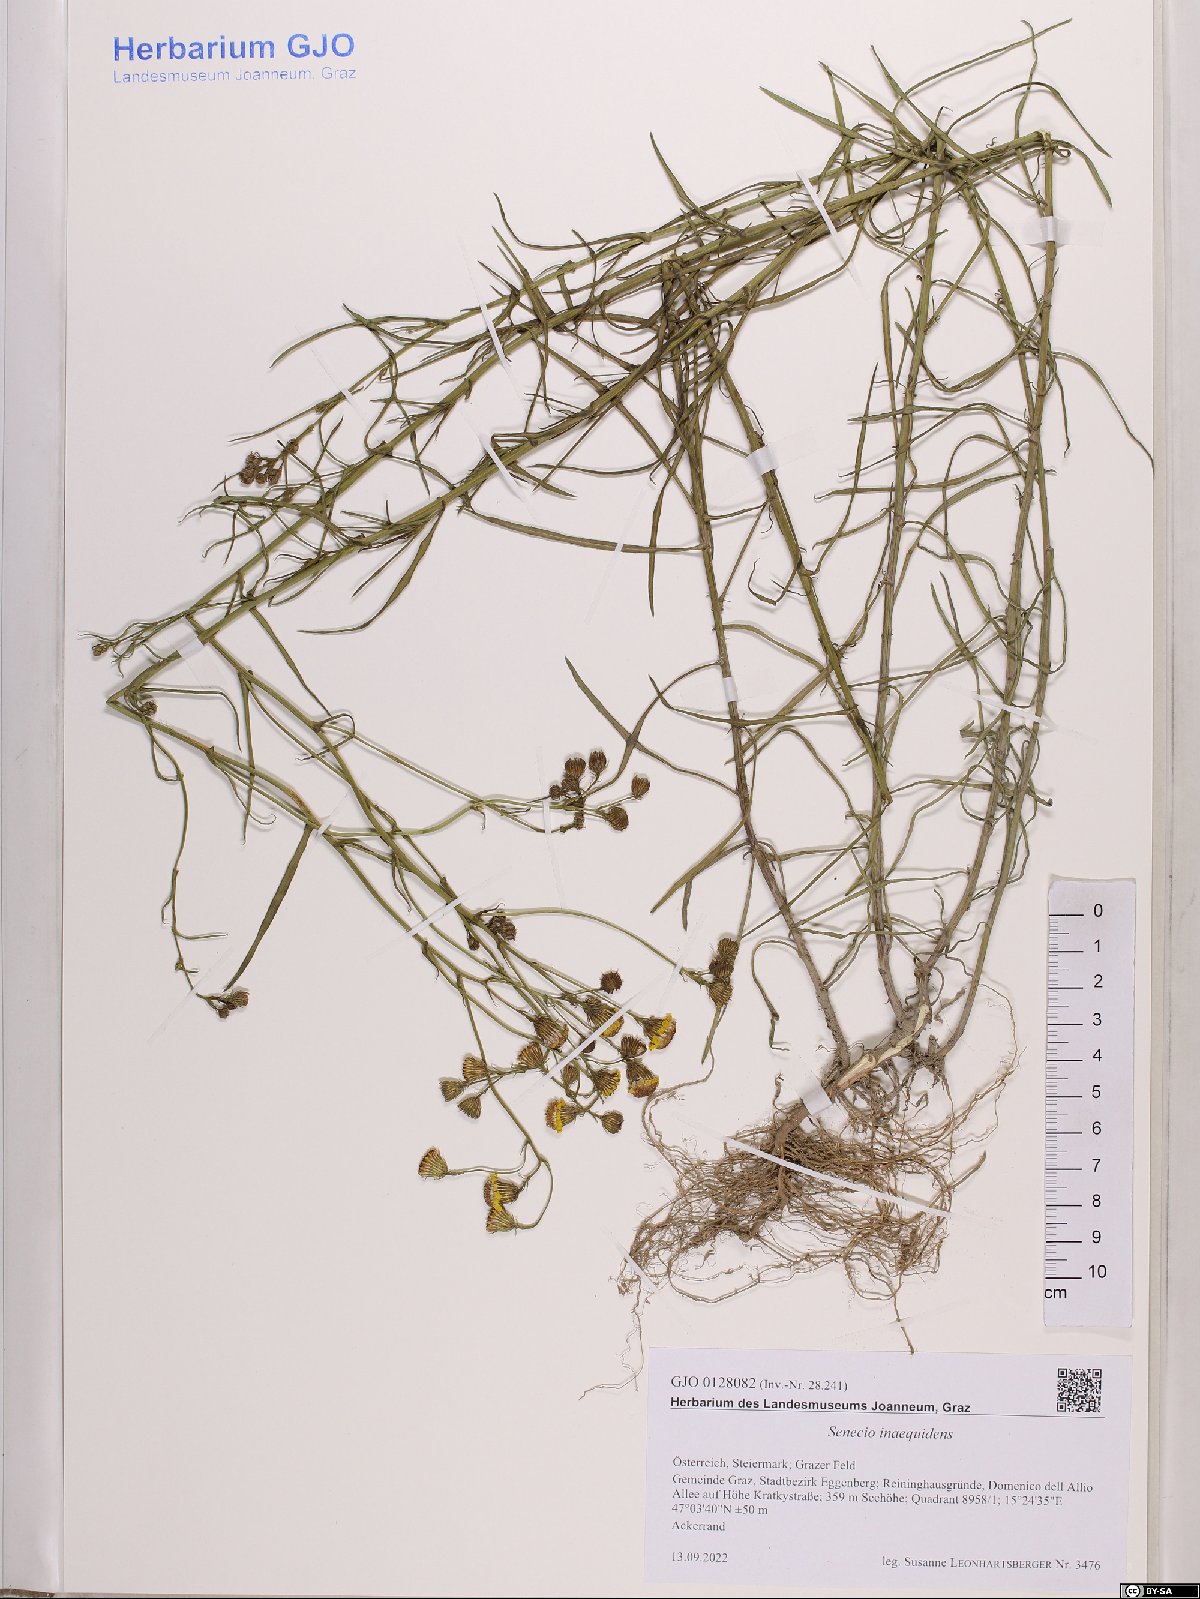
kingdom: Plantae
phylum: Tracheophyta
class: Magnoliopsida
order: Asterales
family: Asteraceae
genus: Senecio
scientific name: Senecio inaequidens
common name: Narrow-leaved ragwort
